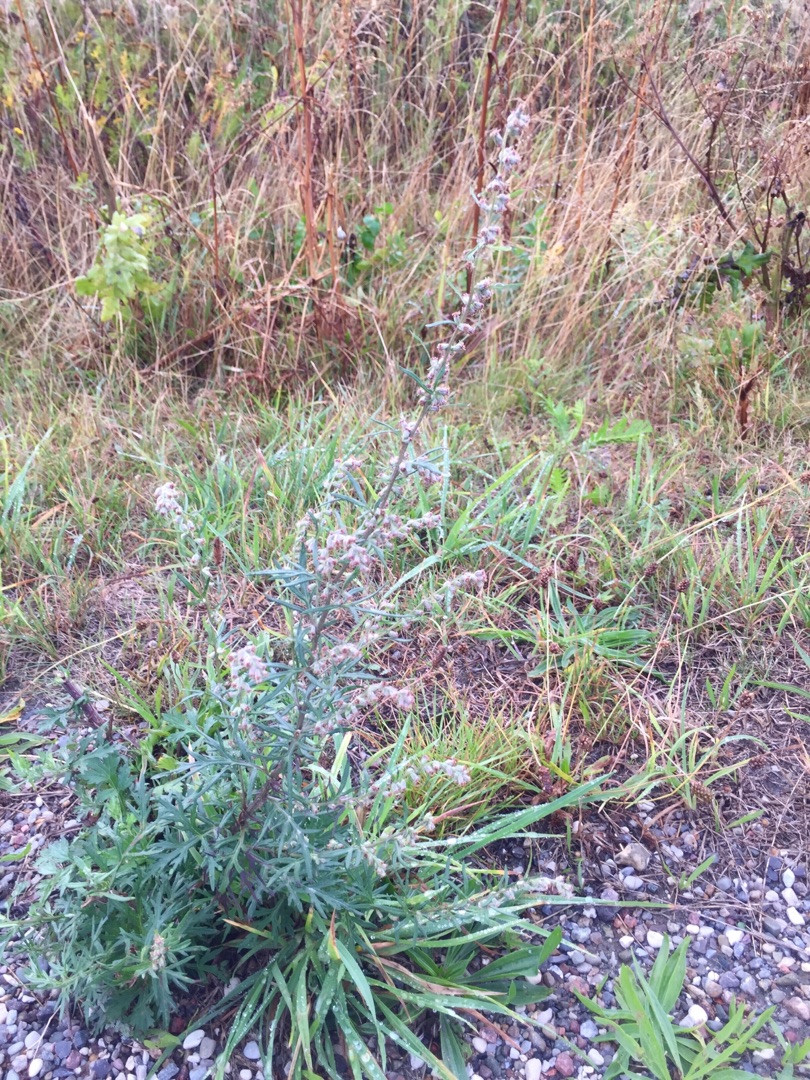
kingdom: Plantae
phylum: Tracheophyta
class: Magnoliopsida
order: Asterales
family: Asteraceae
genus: Artemisia
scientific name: Artemisia vulgaris
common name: Grå-bynke
